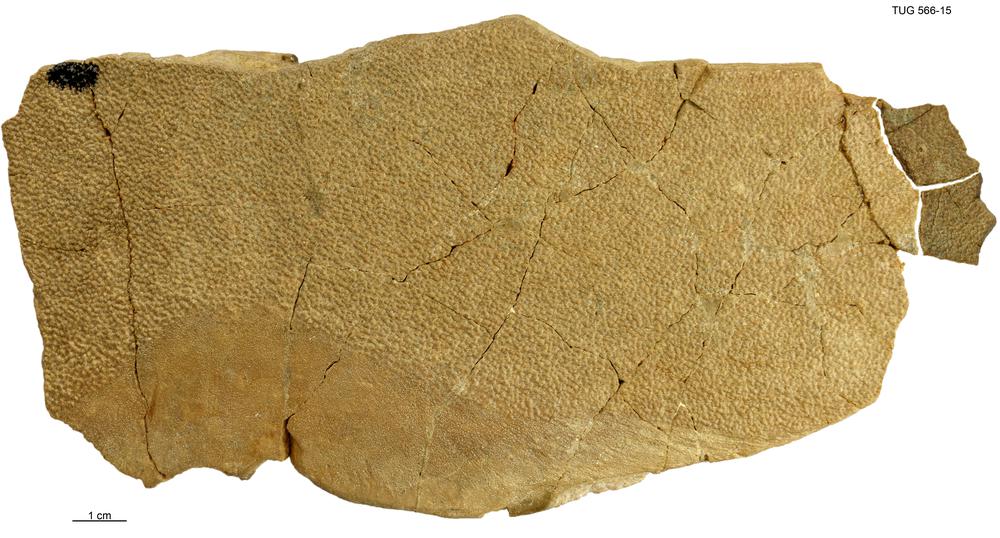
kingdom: Animalia
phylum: Chordata
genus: Homosteus
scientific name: Homosteus latus
